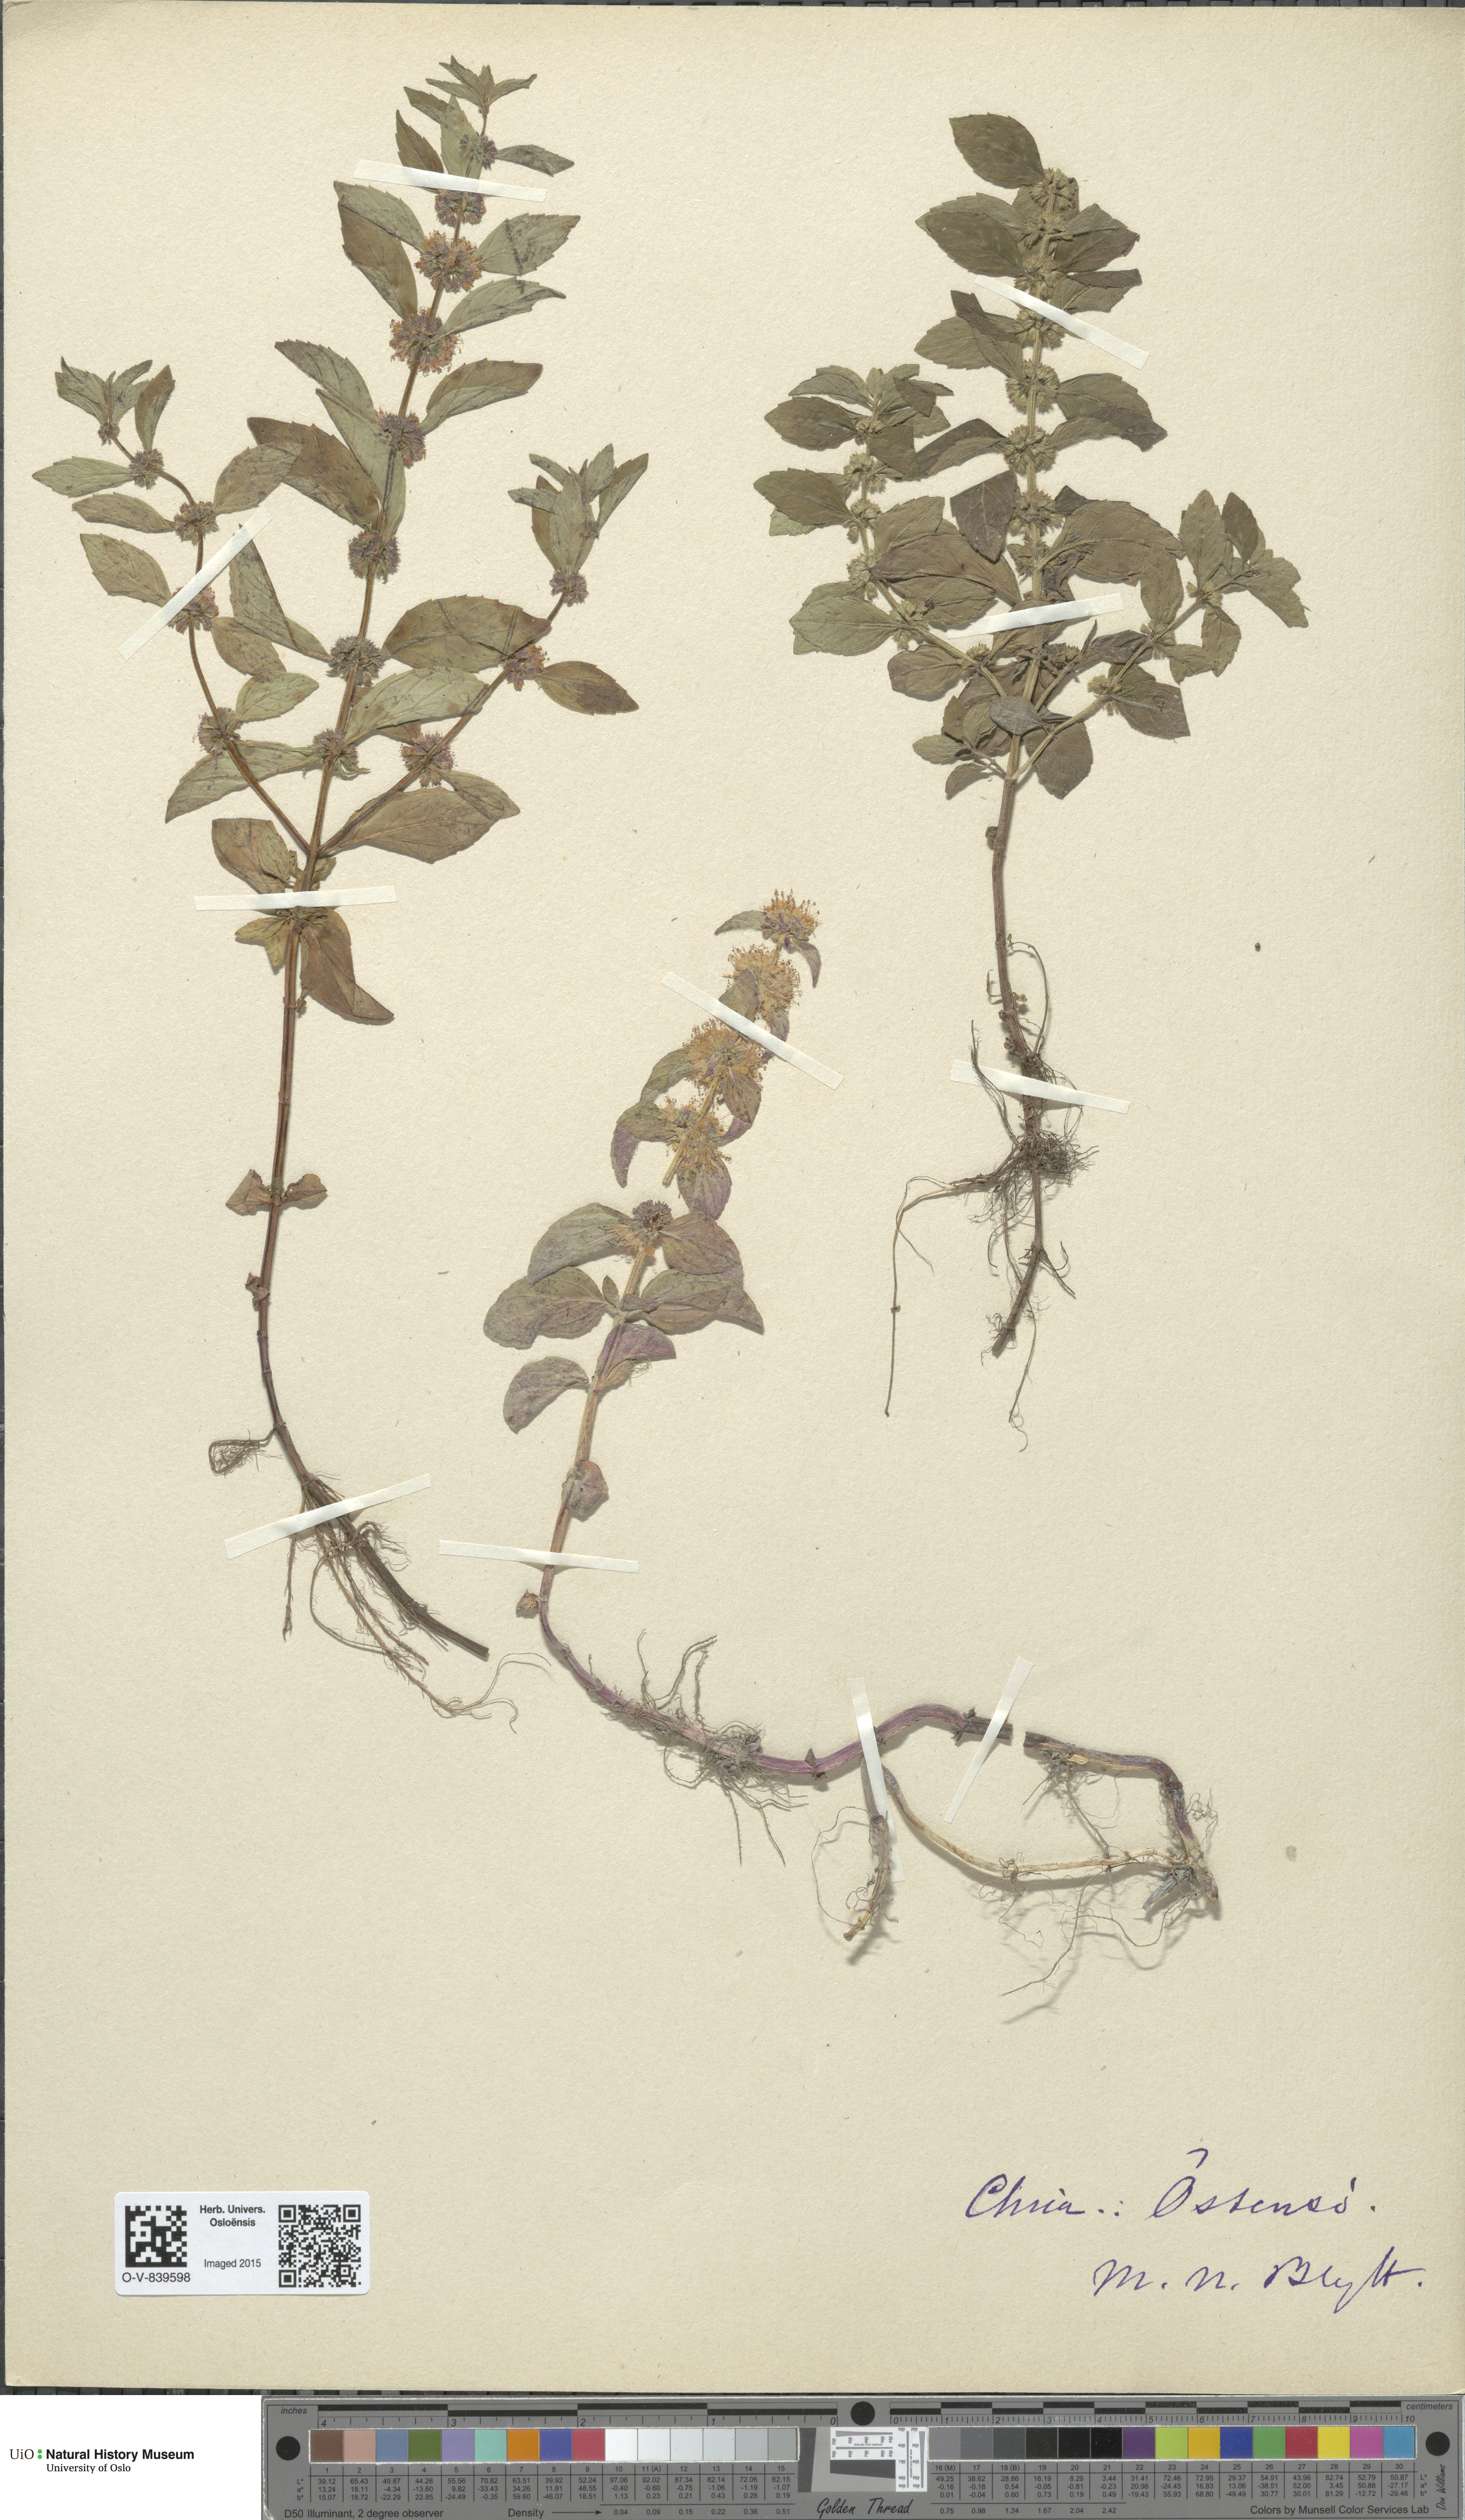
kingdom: Plantae
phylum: Tracheophyta
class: Magnoliopsida
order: Lamiales
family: Lamiaceae
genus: Mentha
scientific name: Mentha arvensis
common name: Corn mint
